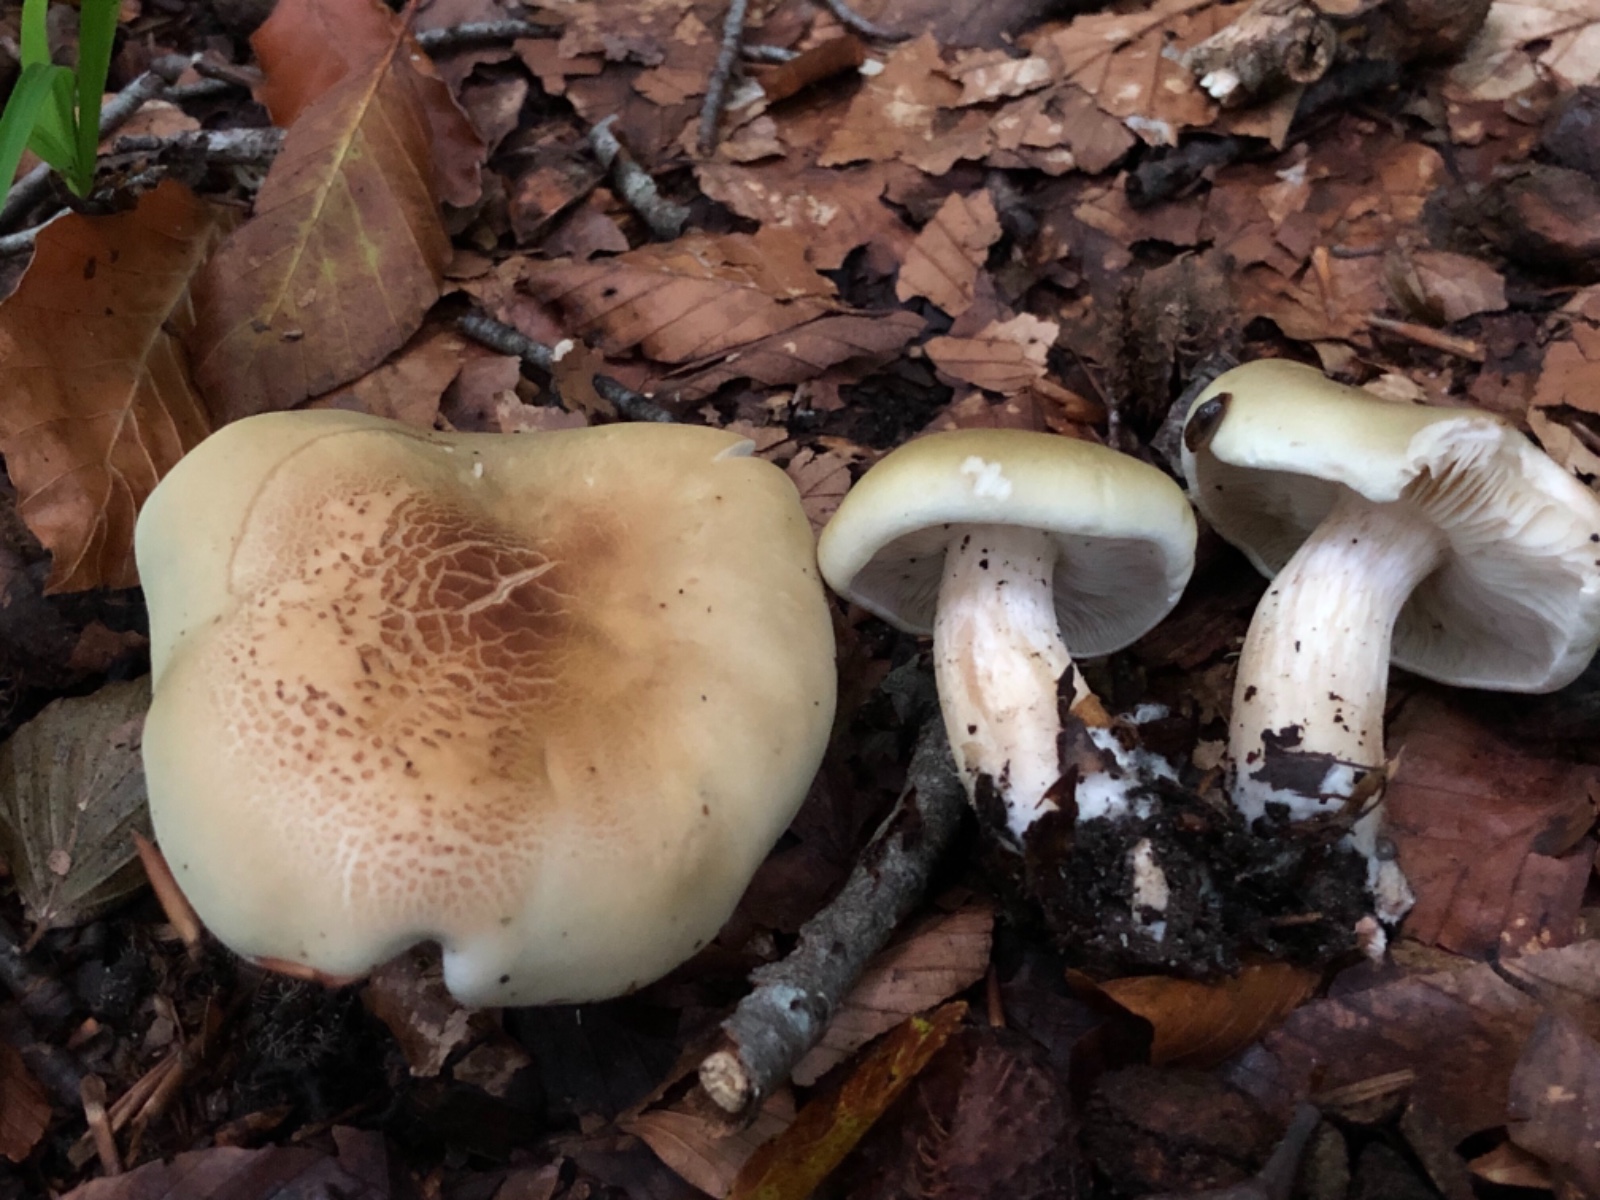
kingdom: Fungi
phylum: Basidiomycota
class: Agaricomycetes
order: Agaricales
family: Tricholomataceae
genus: Tricholoma
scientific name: Tricholoma saponaceum
